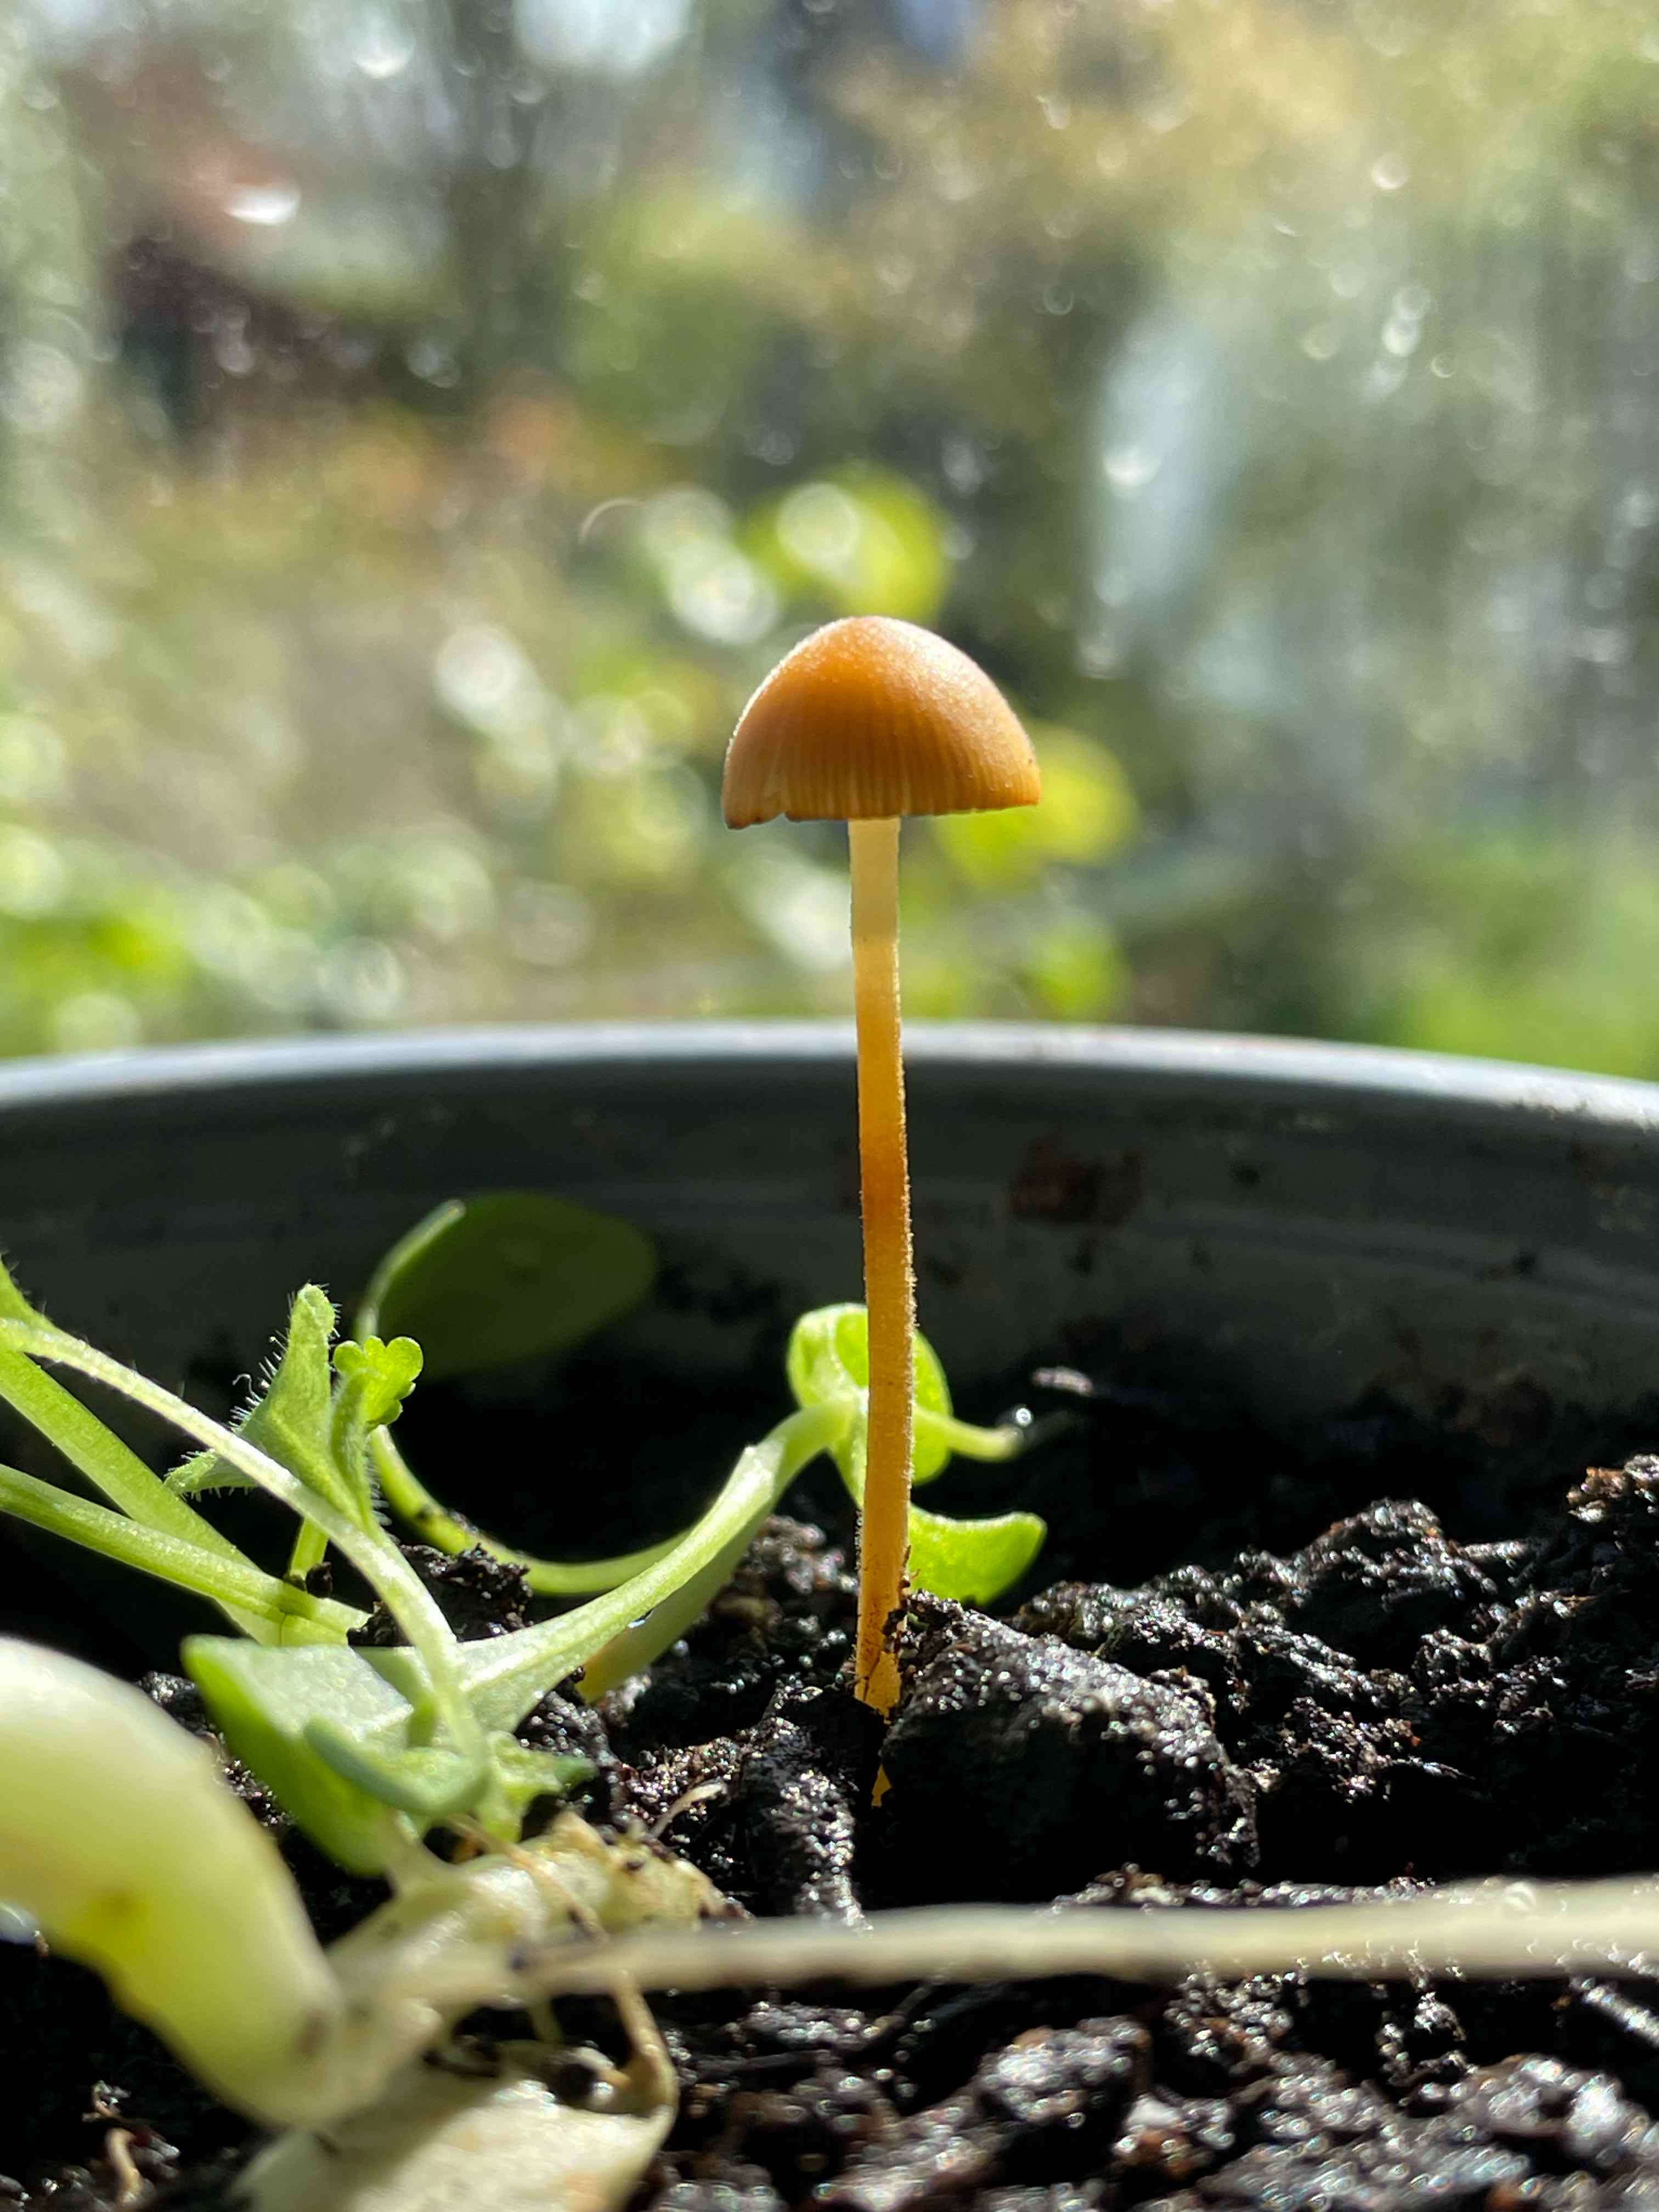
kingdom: Fungi
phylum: Basidiomycota
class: Agaricomycetes
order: Agaricales
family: Bolbitiaceae
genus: Conocybe
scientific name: Conocybe
